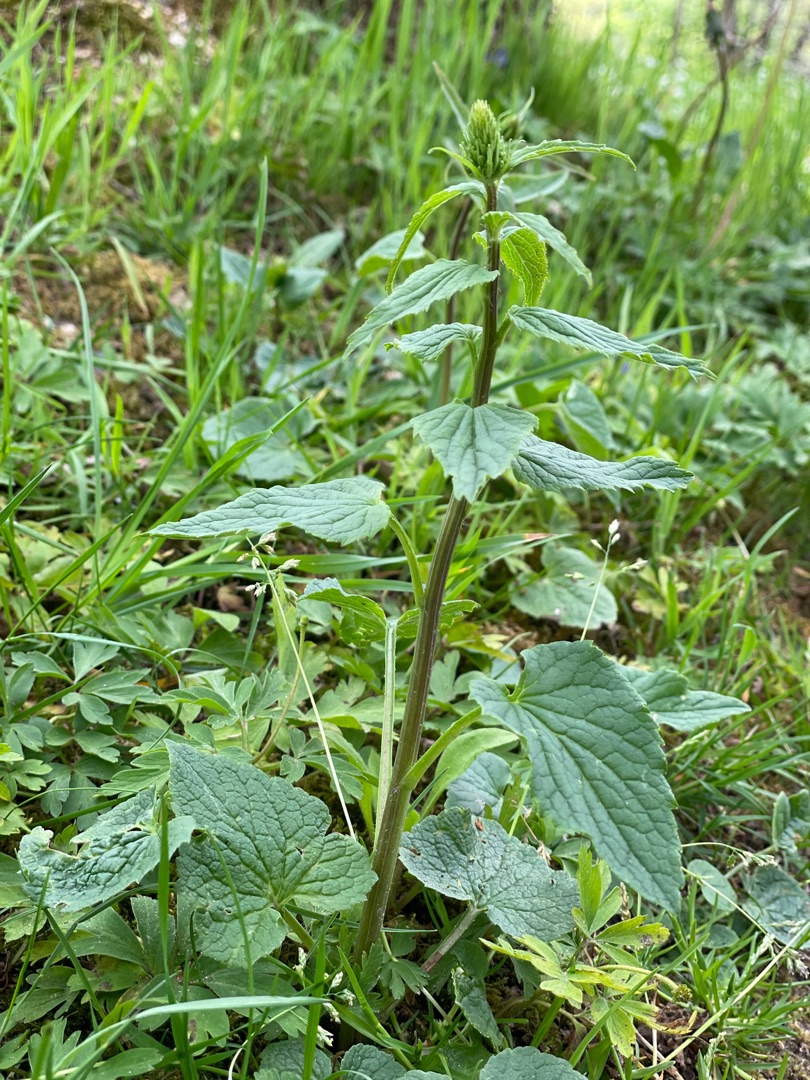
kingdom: Plantae
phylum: Tracheophyta
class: Magnoliopsida
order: Asterales
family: Campanulaceae
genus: Phyteuma
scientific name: Phyteuma spicatum
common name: Aks-rapunsel
